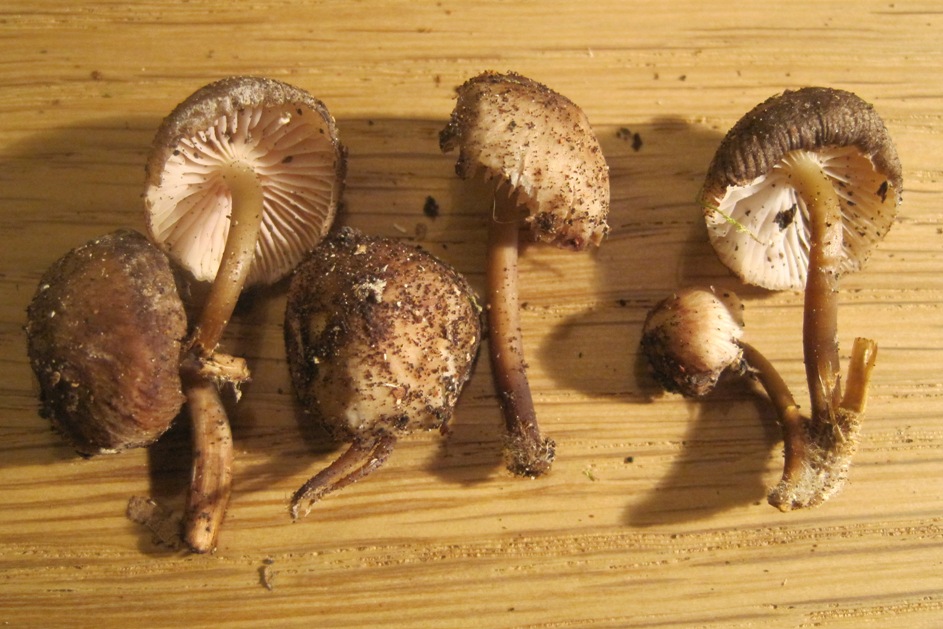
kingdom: Fungi
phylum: Basidiomycota
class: Agaricomycetes
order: Agaricales
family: Mycenaceae
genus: Mycena
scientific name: Mycena tintinnabulum
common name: vinter-huesvamp
